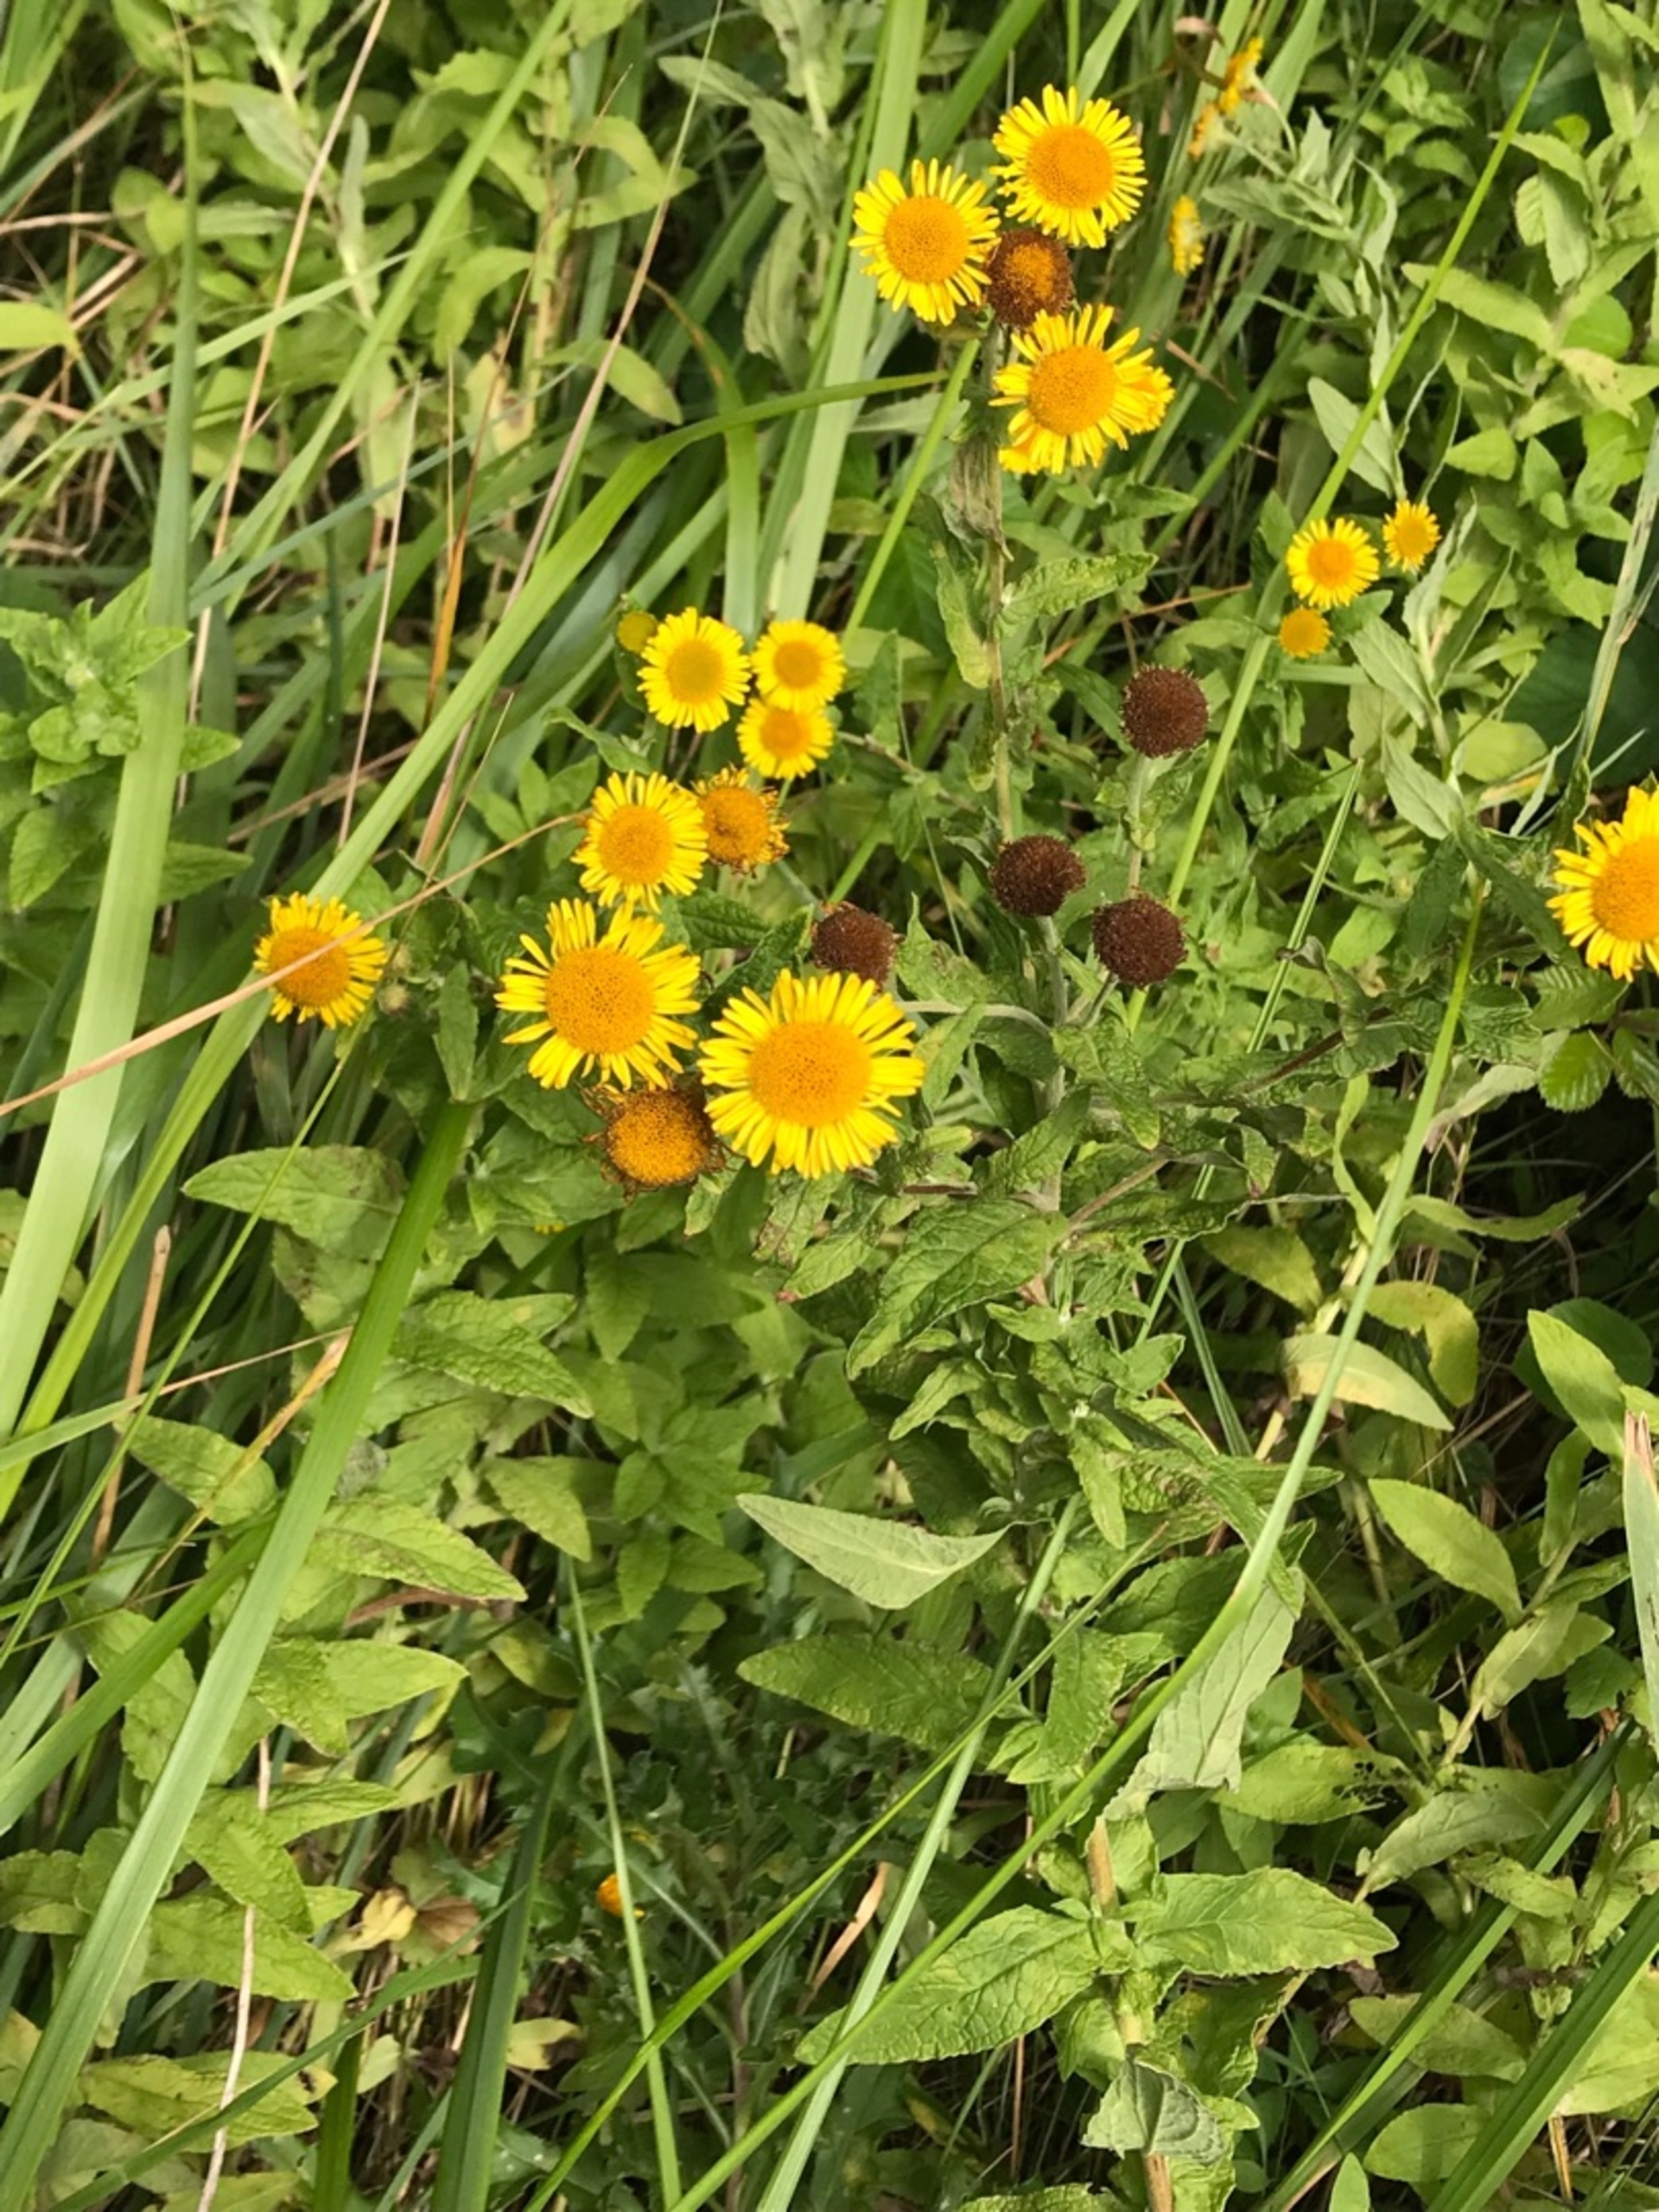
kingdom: Plantae
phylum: Tracheophyta
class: Magnoliopsida
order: Asterales
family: Asteraceae
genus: Pulicaria
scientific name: Pulicaria dysenterica
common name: Strand-loppeurt
